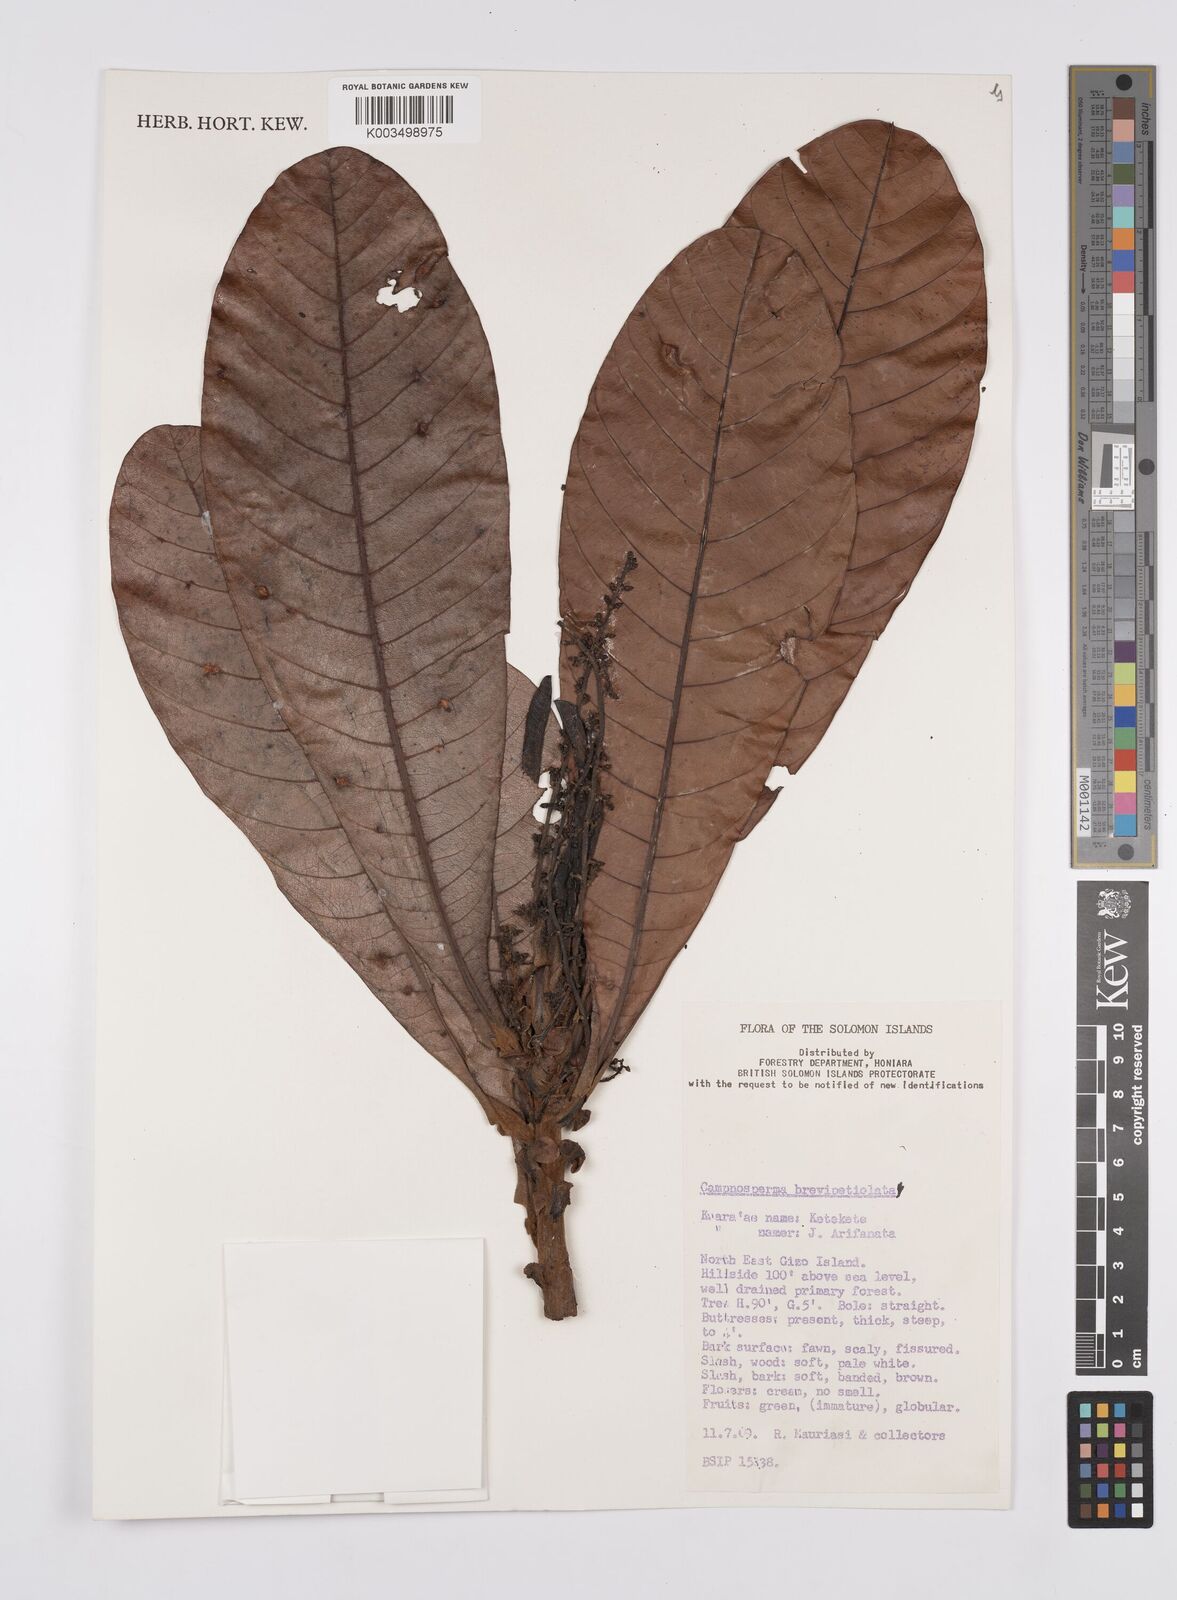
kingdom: Plantae
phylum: Tracheophyta
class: Magnoliopsida
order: Sapindales
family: Anacardiaceae
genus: Campnosperma
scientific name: Campnosperma brevipetiolatum
